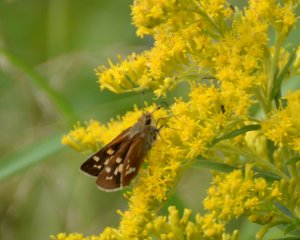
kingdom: Animalia
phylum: Arthropoda
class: Insecta
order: Lepidoptera
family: Hesperiidae
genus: Hesperia
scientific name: Hesperia leonardus
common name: Leonard's Skipper
